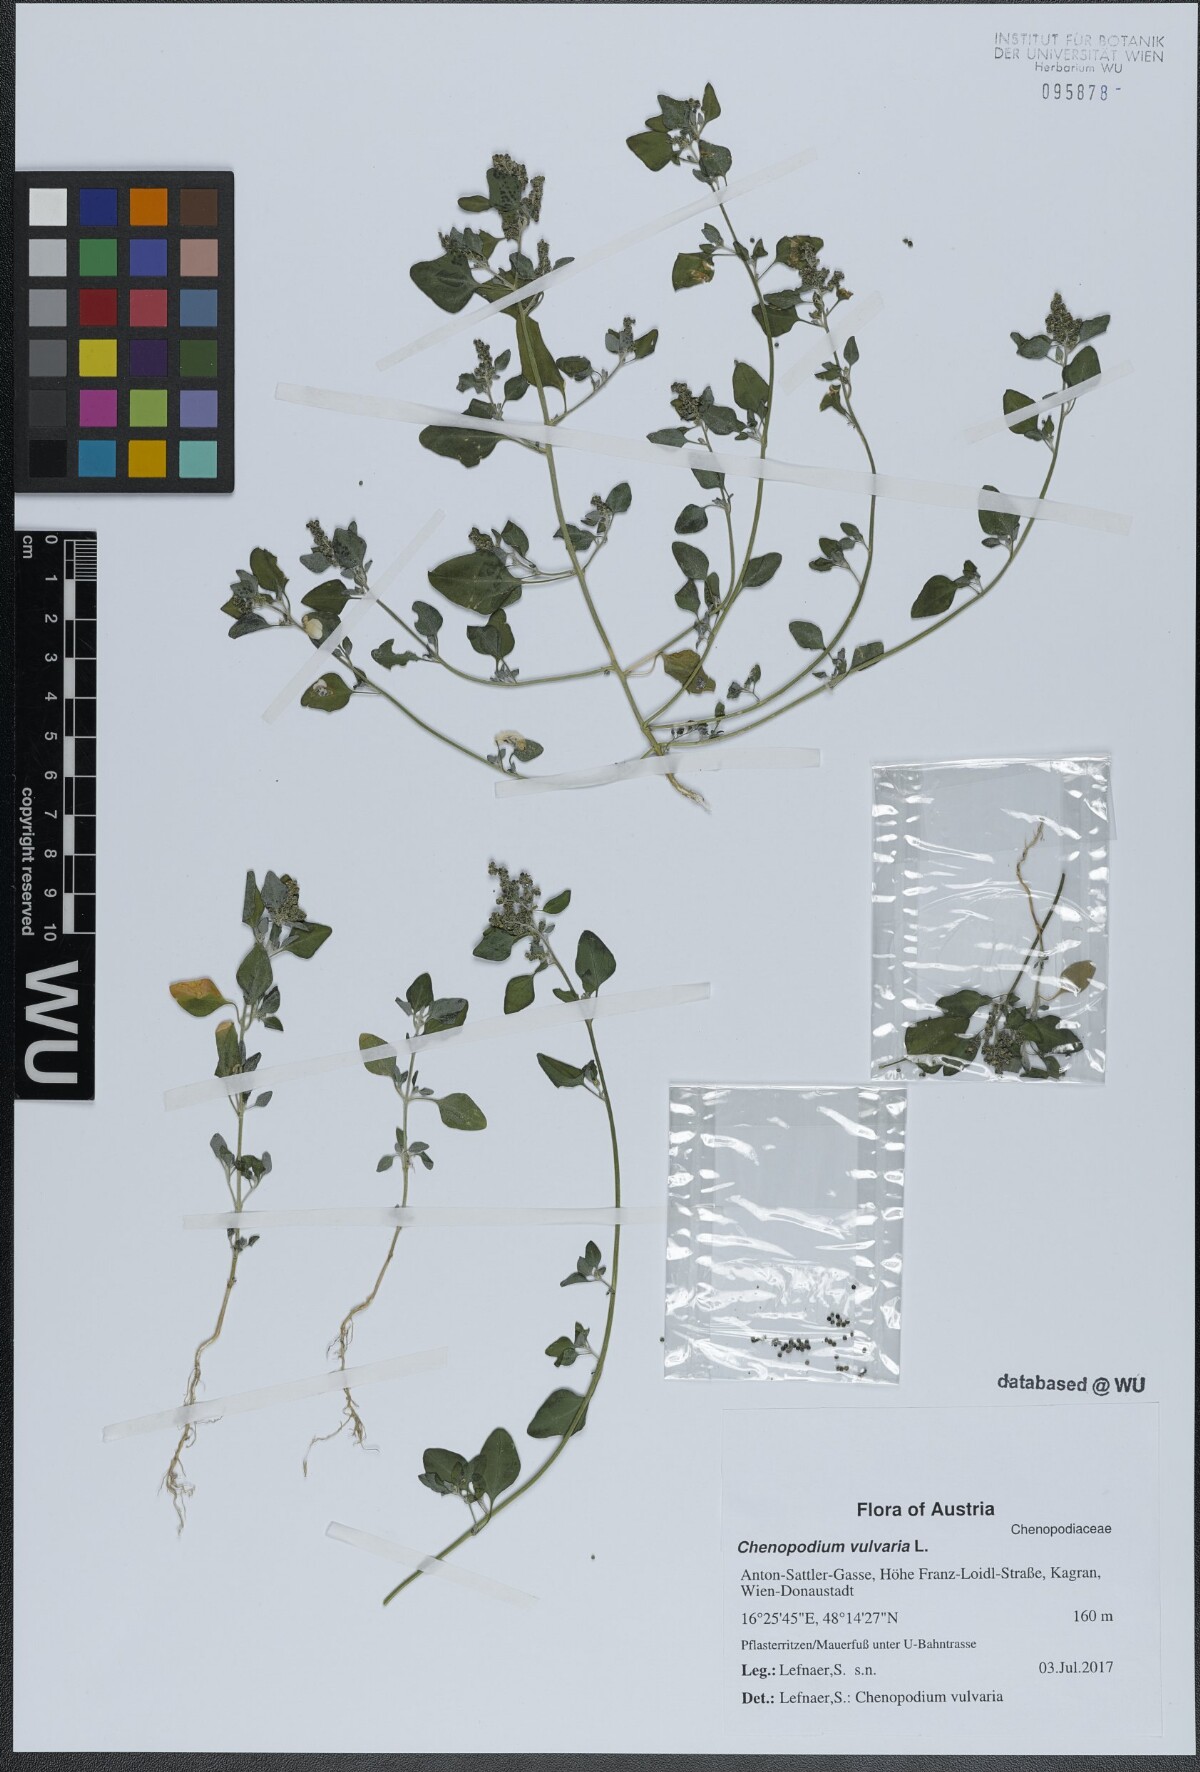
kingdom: Plantae
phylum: Tracheophyta
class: Magnoliopsida
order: Caryophyllales
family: Amaranthaceae
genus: Chenopodium
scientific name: Chenopodium vulvaria
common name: Stinking goosefoot
